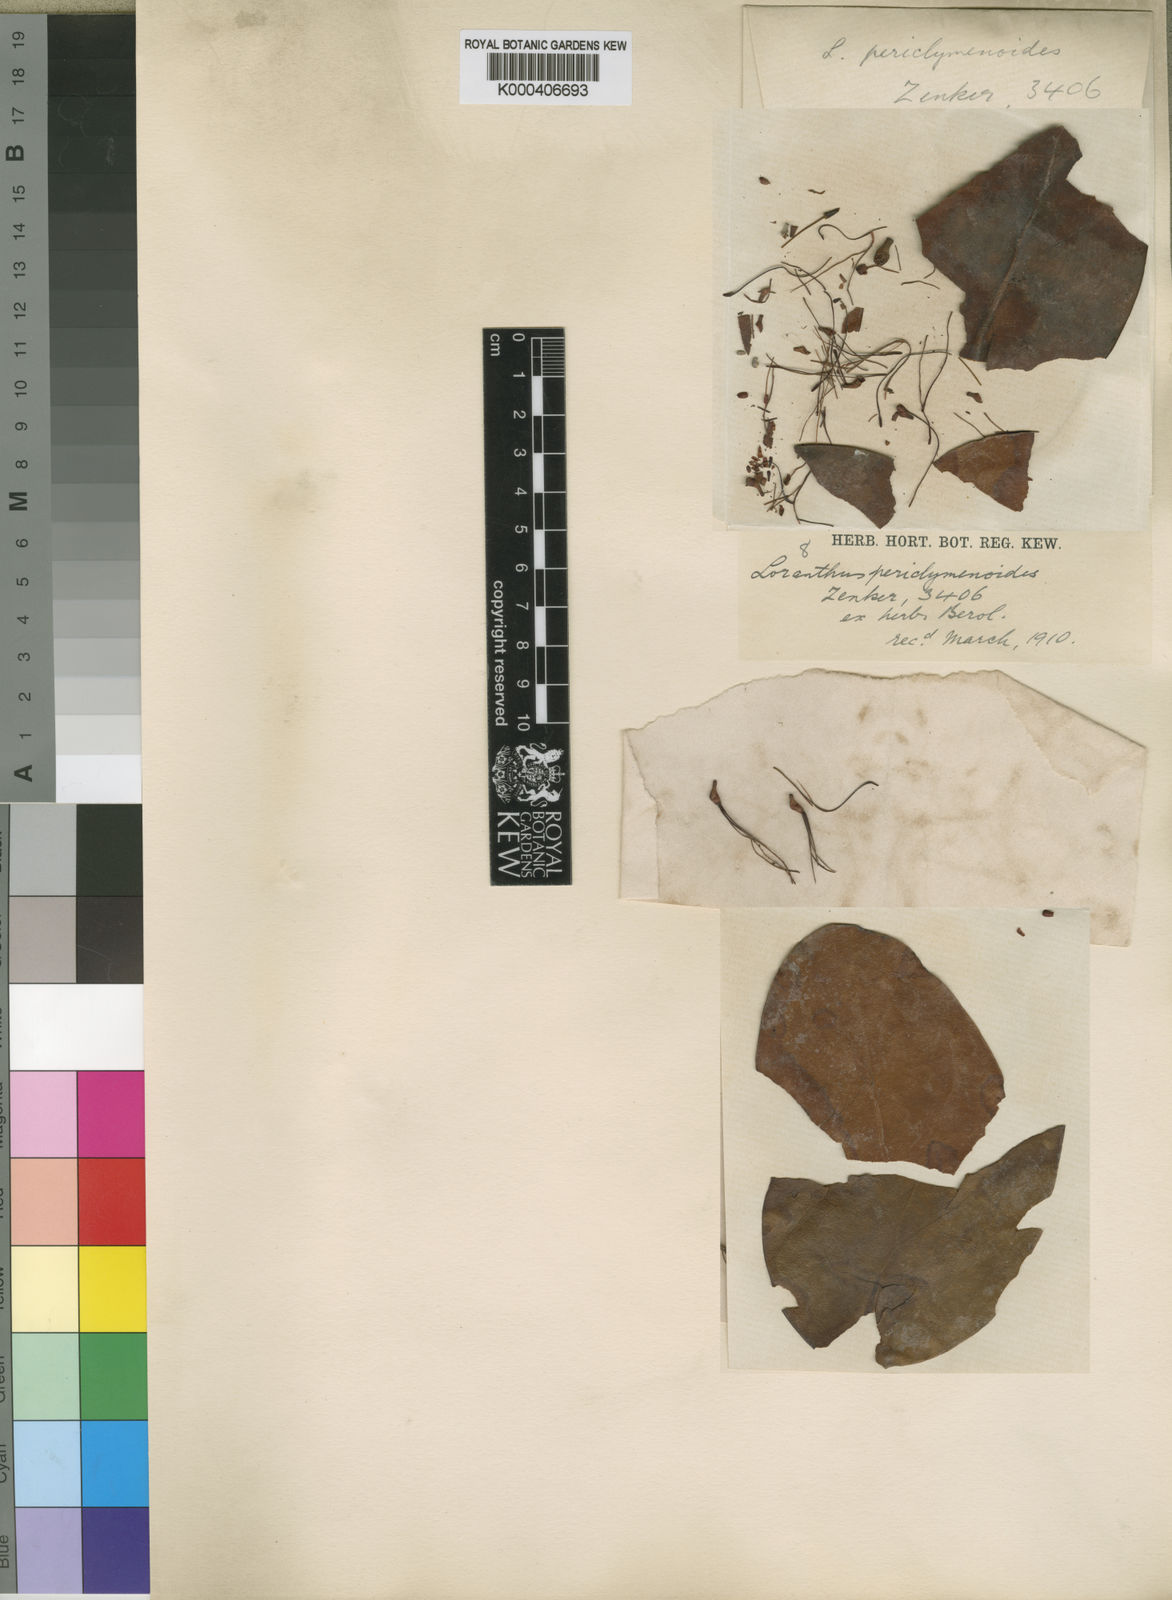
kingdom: Plantae
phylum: Tracheophyta
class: Magnoliopsida
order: Santalales
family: Loranthaceae
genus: Helixanthera
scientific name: Helixanthera periclymenoides
